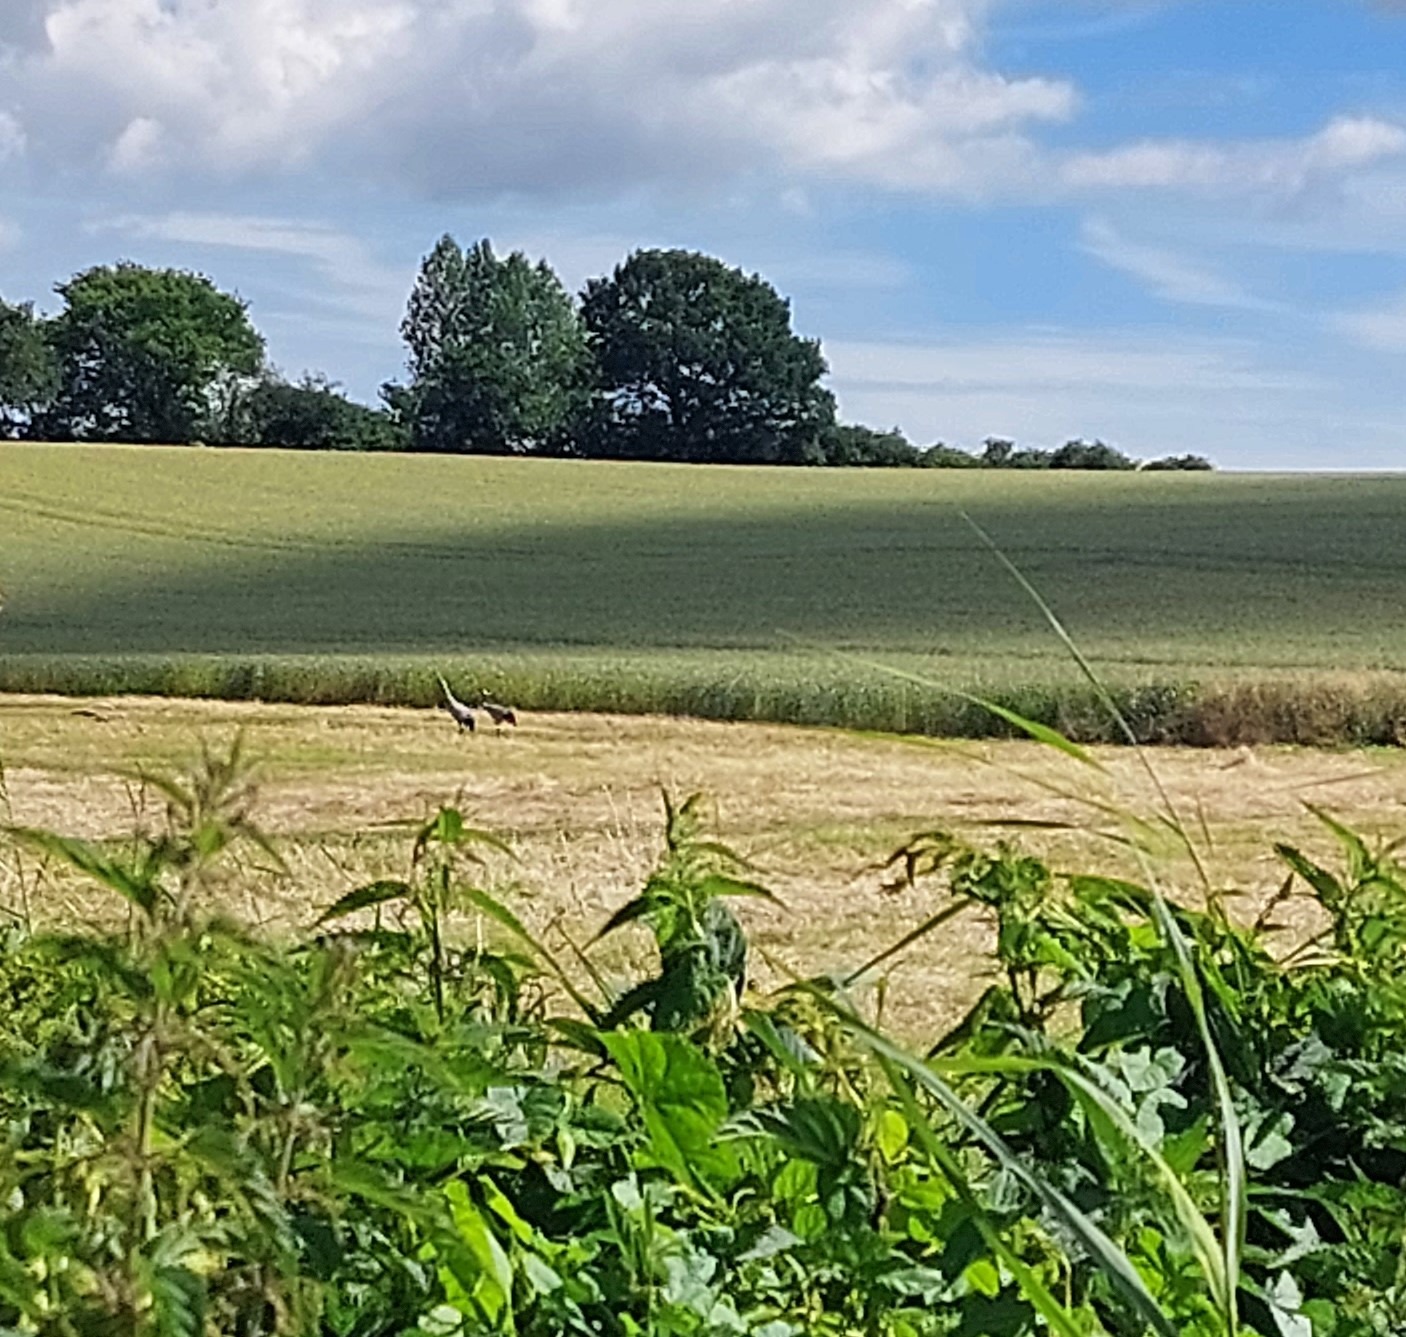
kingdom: Animalia
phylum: Chordata
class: Aves
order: Gruiformes
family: Gruidae
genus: Grus
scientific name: Grus grus
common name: Trane
